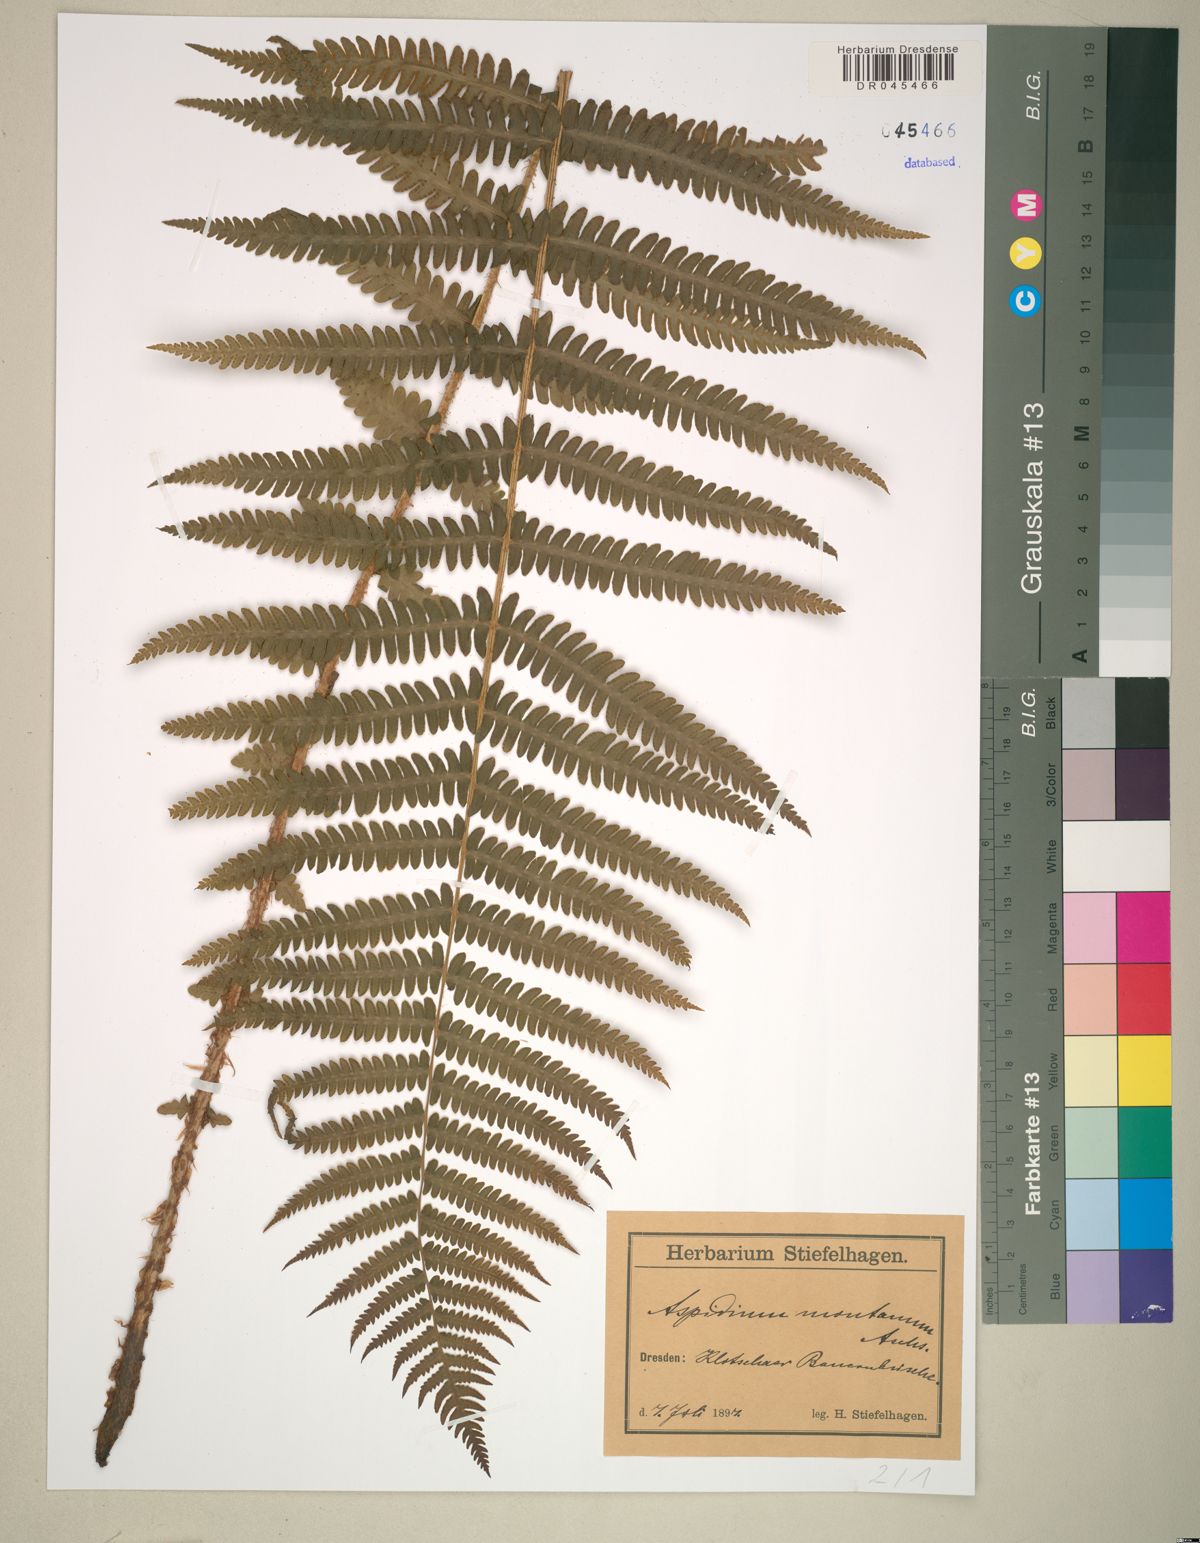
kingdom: Plantae
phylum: Tracheophyta
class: Polypodiopsida
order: Polypodiales
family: Thelypteridaceae
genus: Oreopteris
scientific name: Oreopteris limbosperma
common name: Lemon-scented fern
